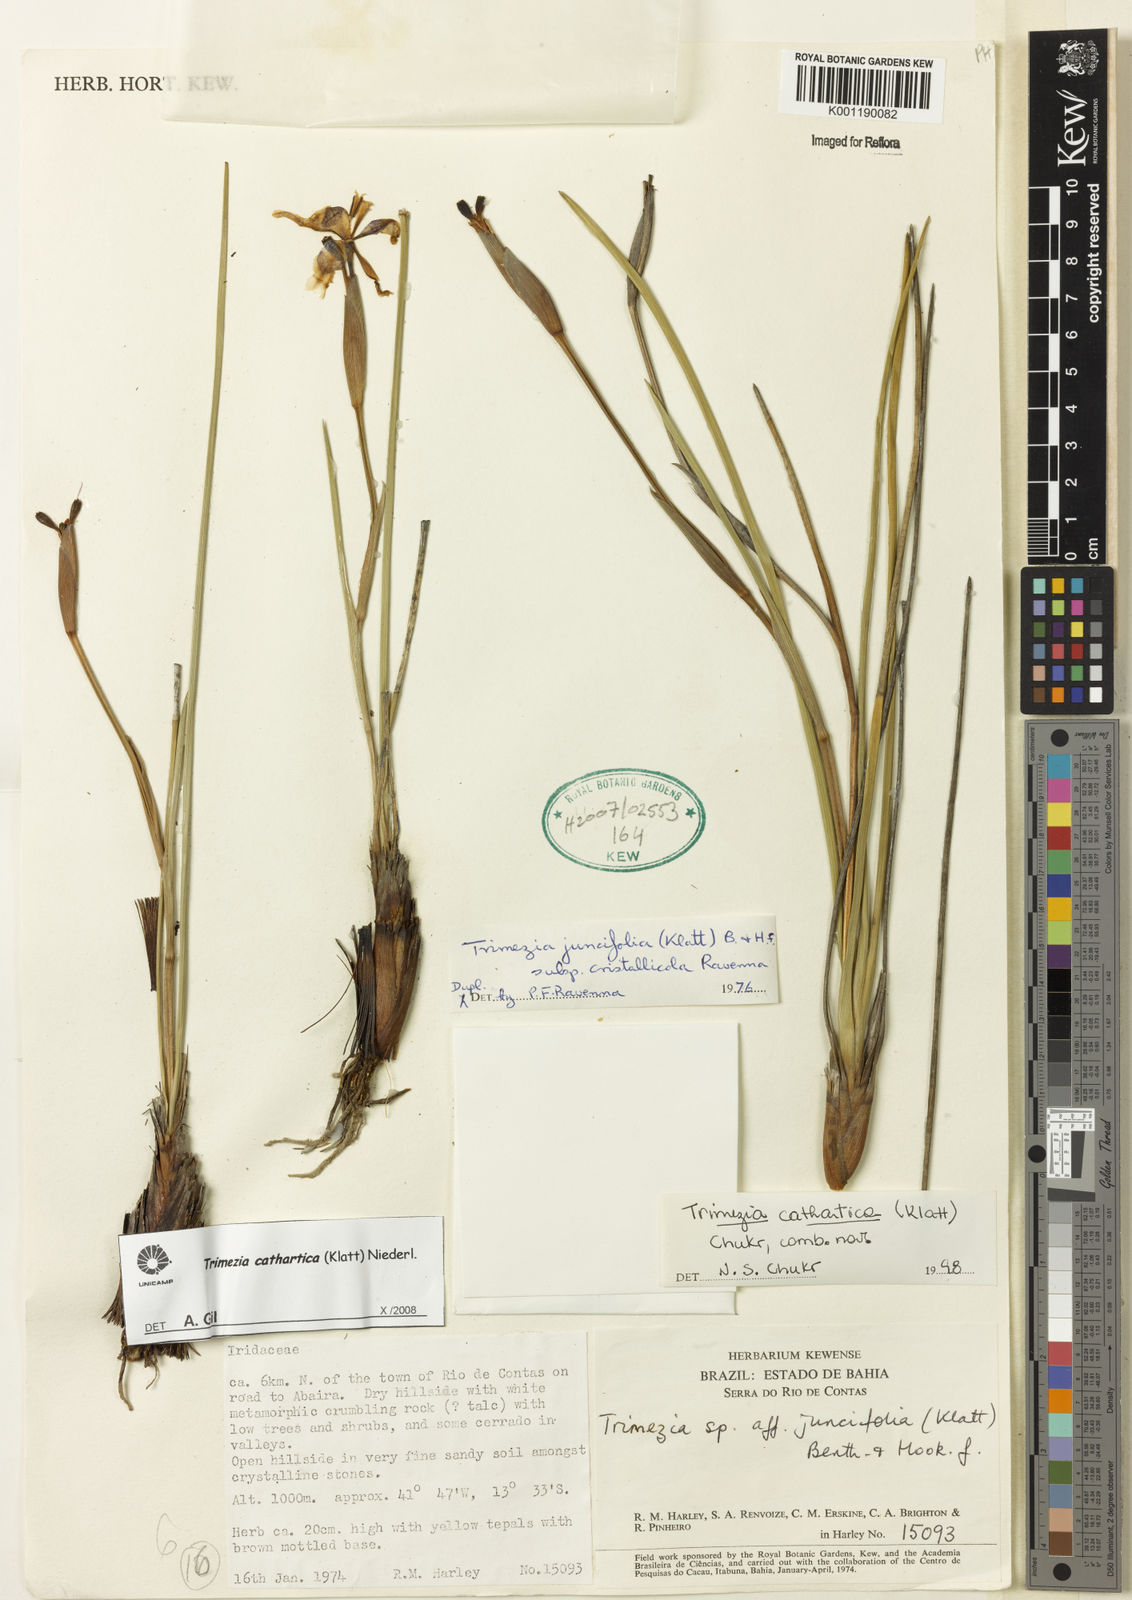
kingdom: Plantae
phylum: Tracheophyta
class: Liliopsida
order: Asparagales
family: Iridaceae
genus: Trimezia
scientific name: Trimezia cathartica
